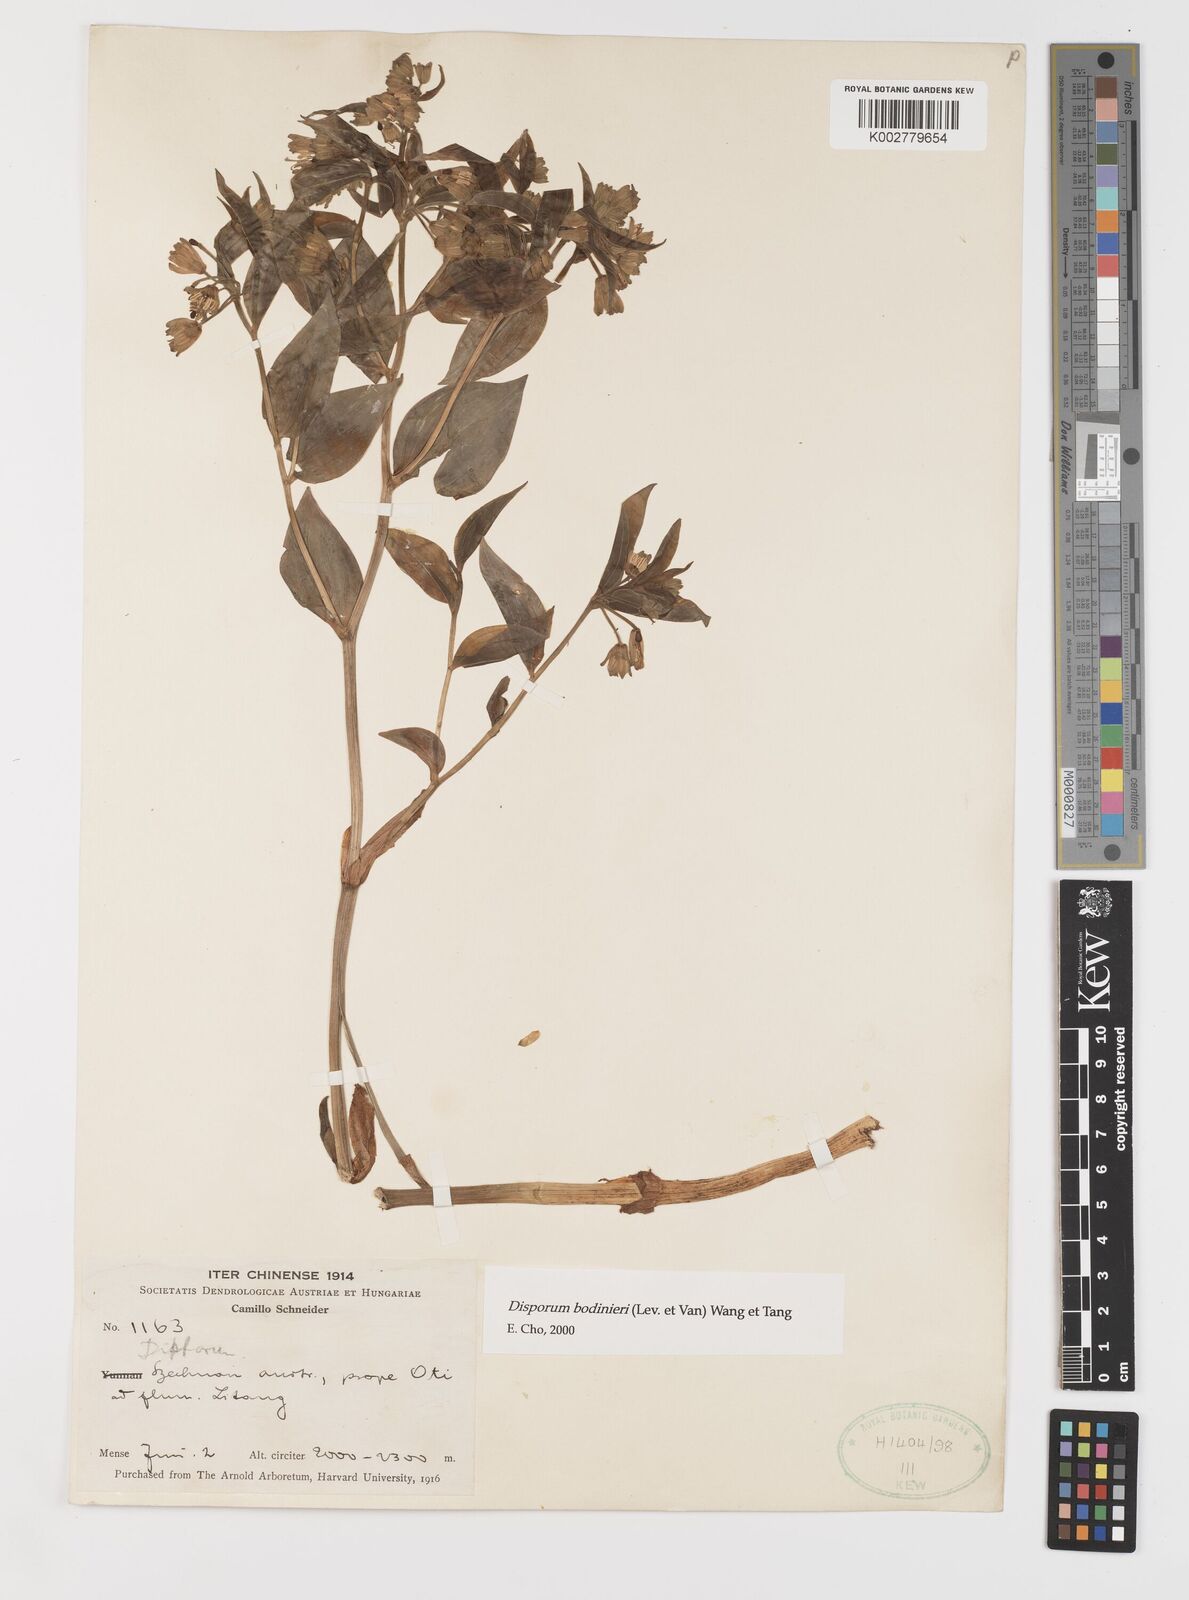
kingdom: Plantae
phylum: Tracheophyta
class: Liliopsida
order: Liliales
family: Colchicaceae
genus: Disporum
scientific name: Disporum bodinieri
